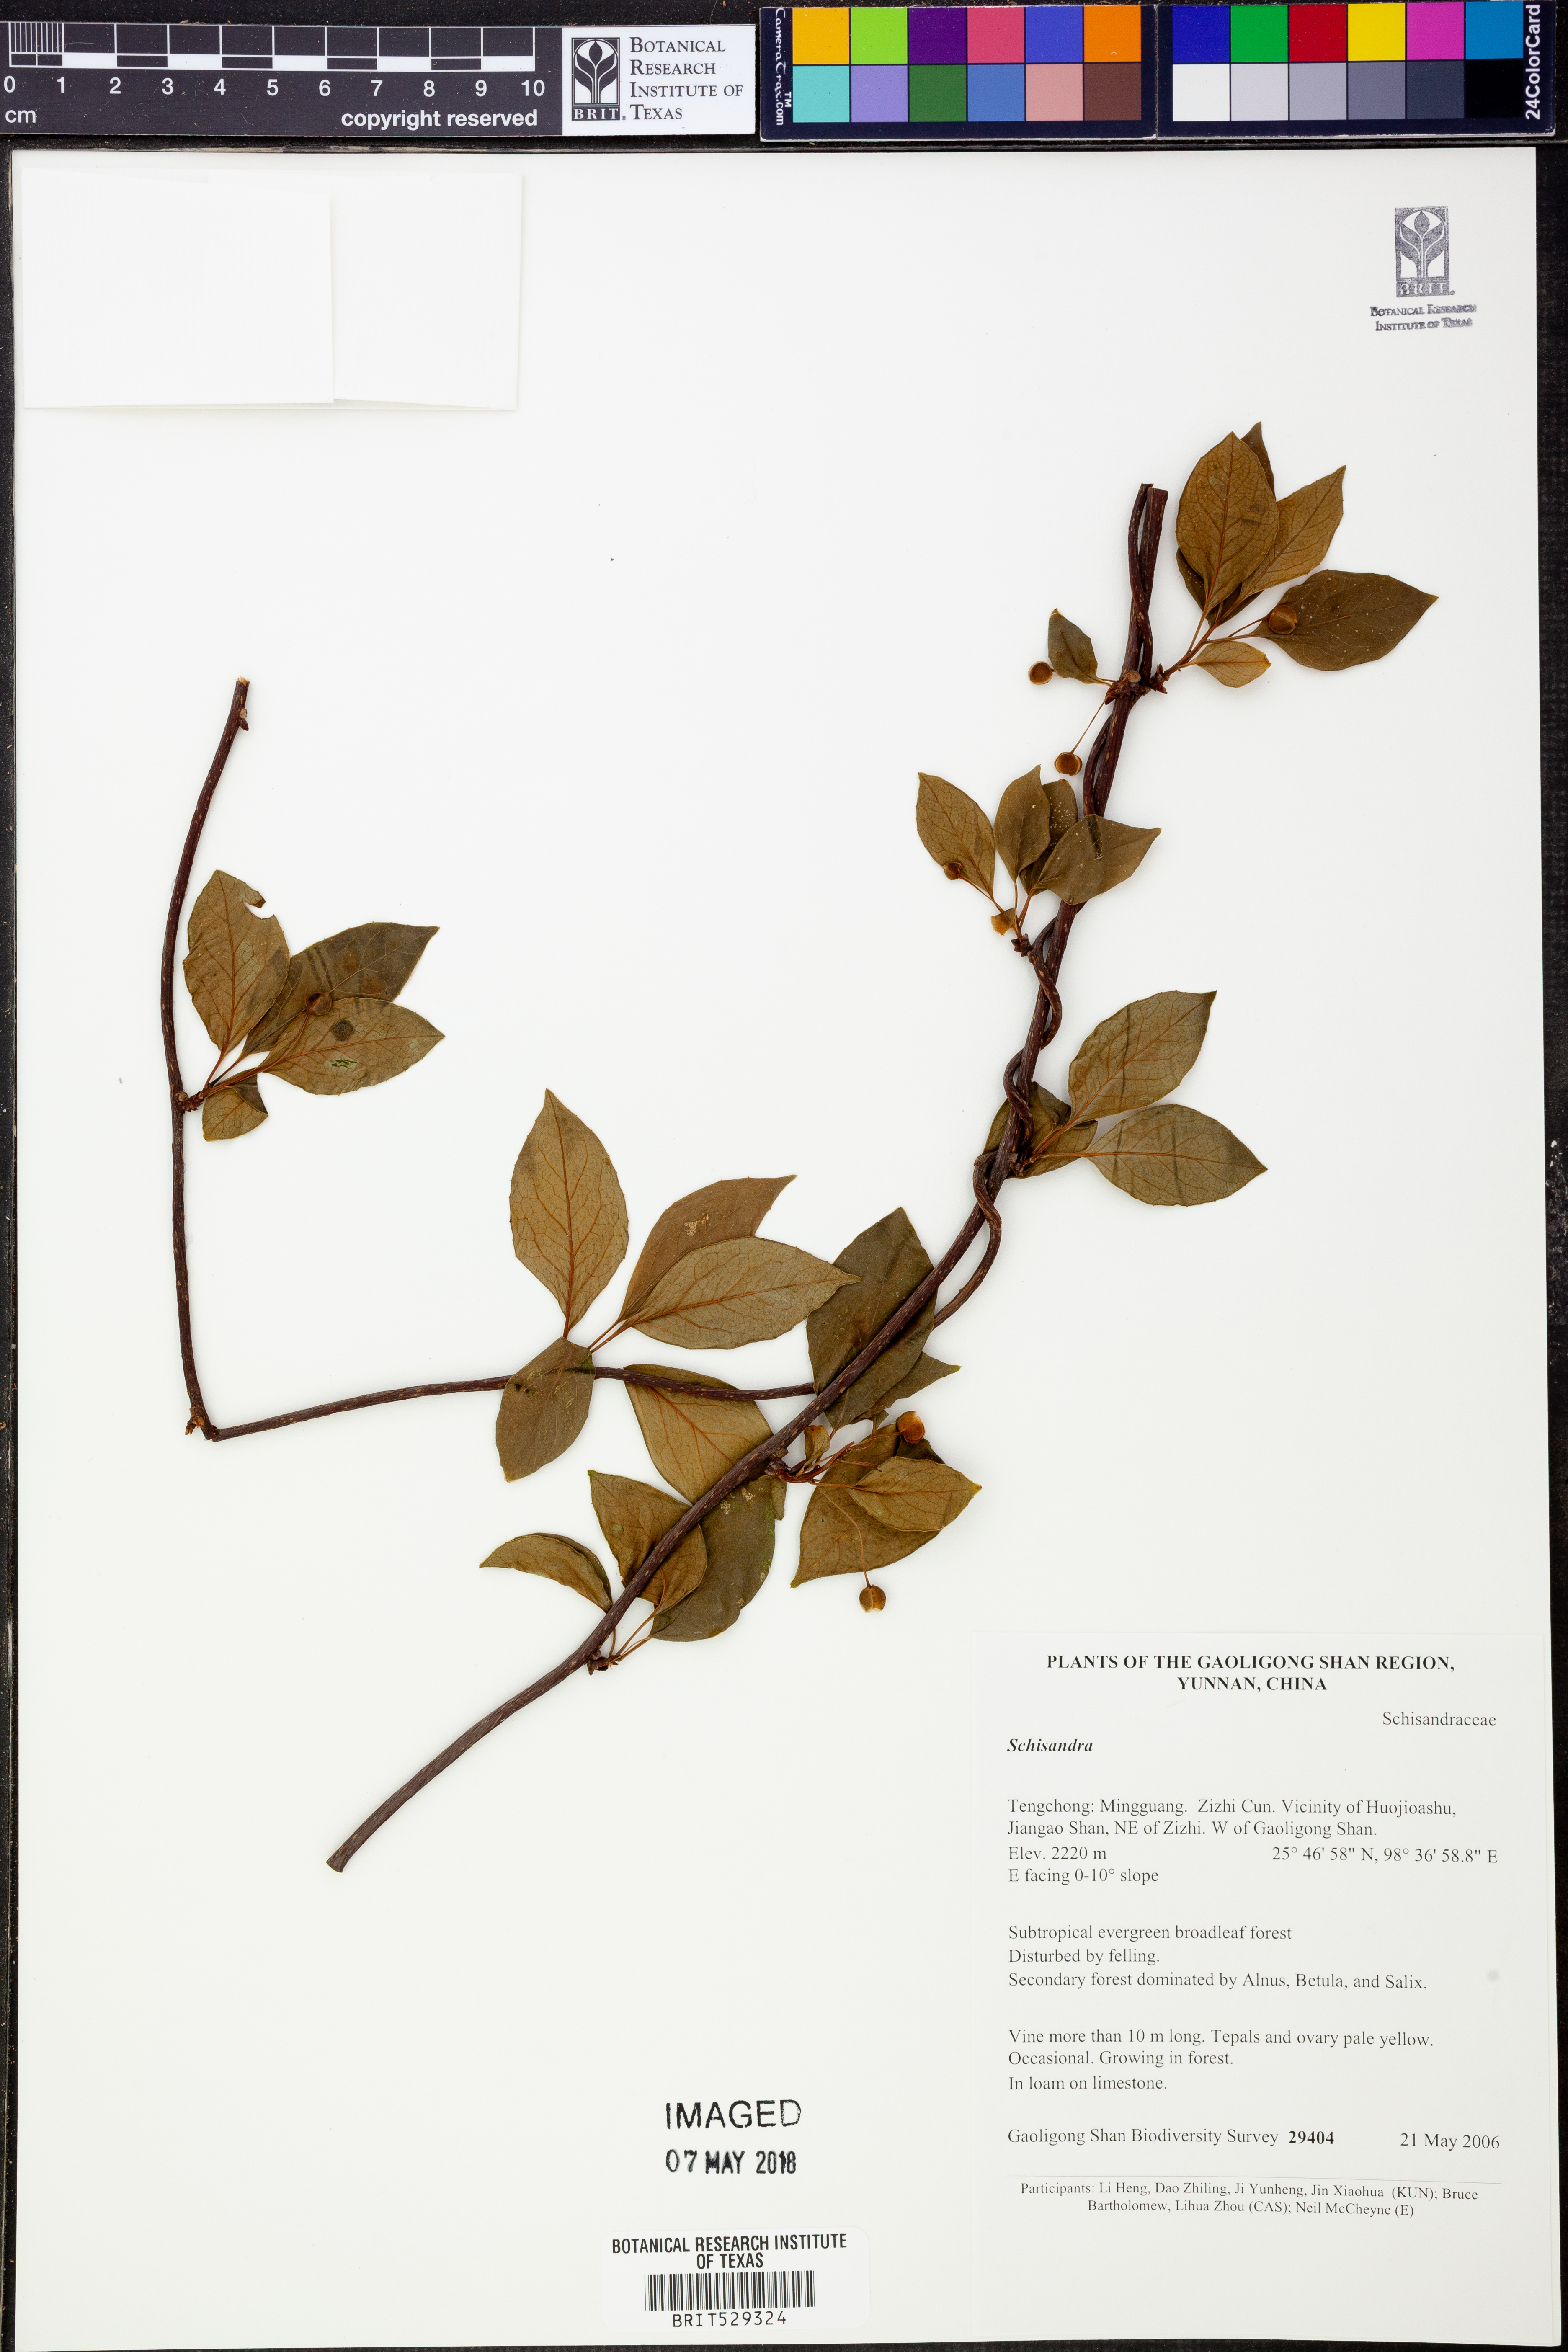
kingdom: Plantae
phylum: Tracheophyta
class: Magnoliopsida
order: Austrobaileyales
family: Schisandraceae
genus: Schisandra
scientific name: Schisandra
